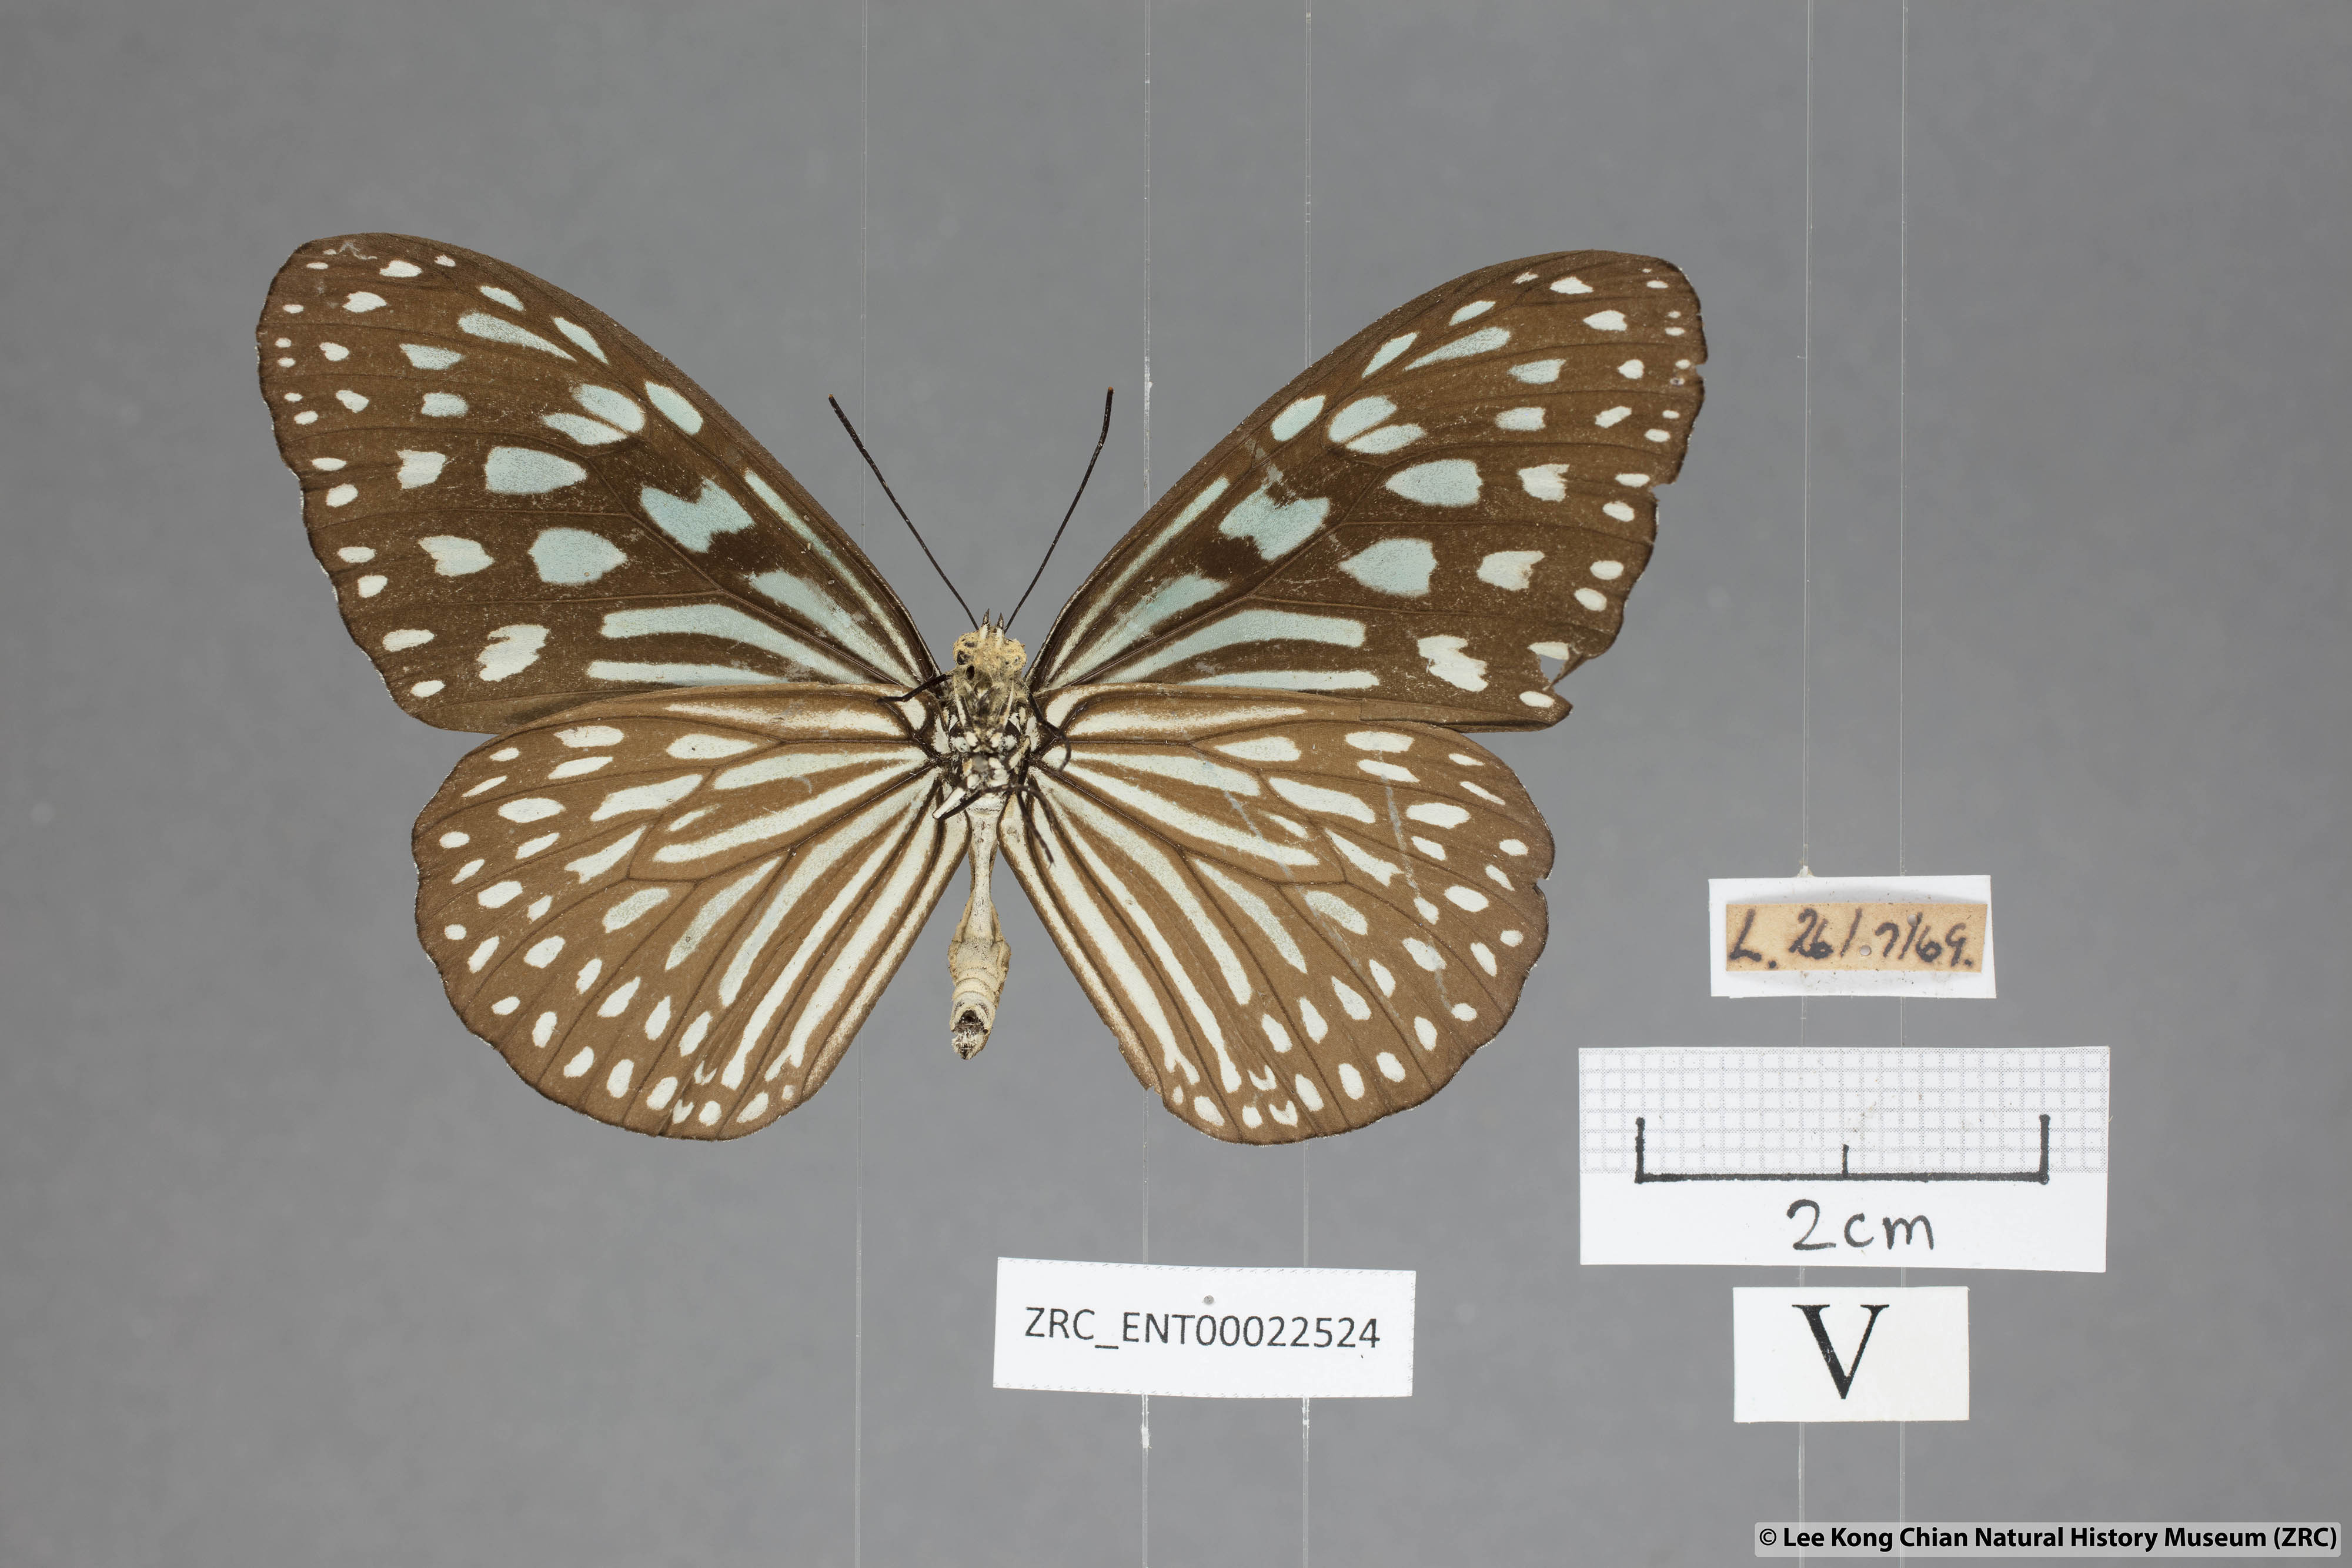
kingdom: Animalia
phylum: Arthropoda
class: Insecta
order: Lepidoptera
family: Nymphalidae
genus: Ideopsis
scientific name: Ideopsis similis
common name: Ceylon blue glassy tiger
